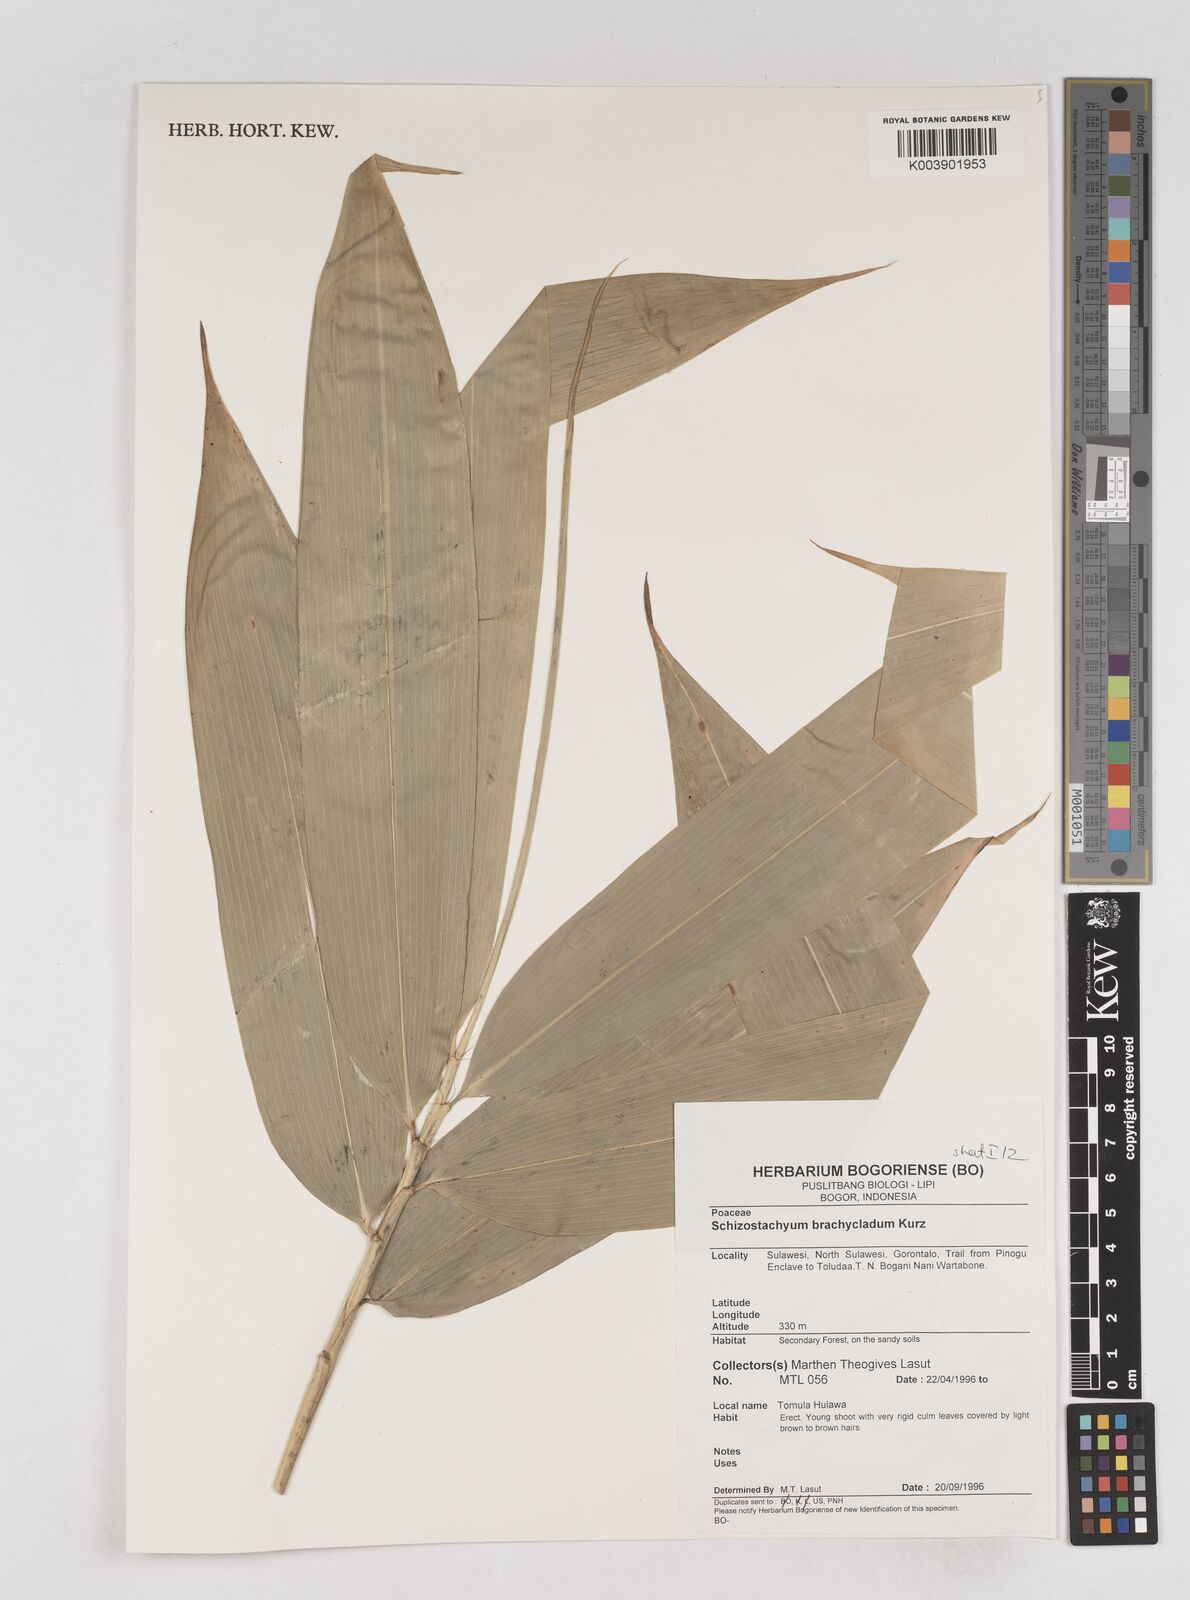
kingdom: Plantae
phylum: Tracheophyta
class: Liliopsida
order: Poales
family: Poaceae
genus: Schizostachyum
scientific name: Schizostachyum brachycladum
